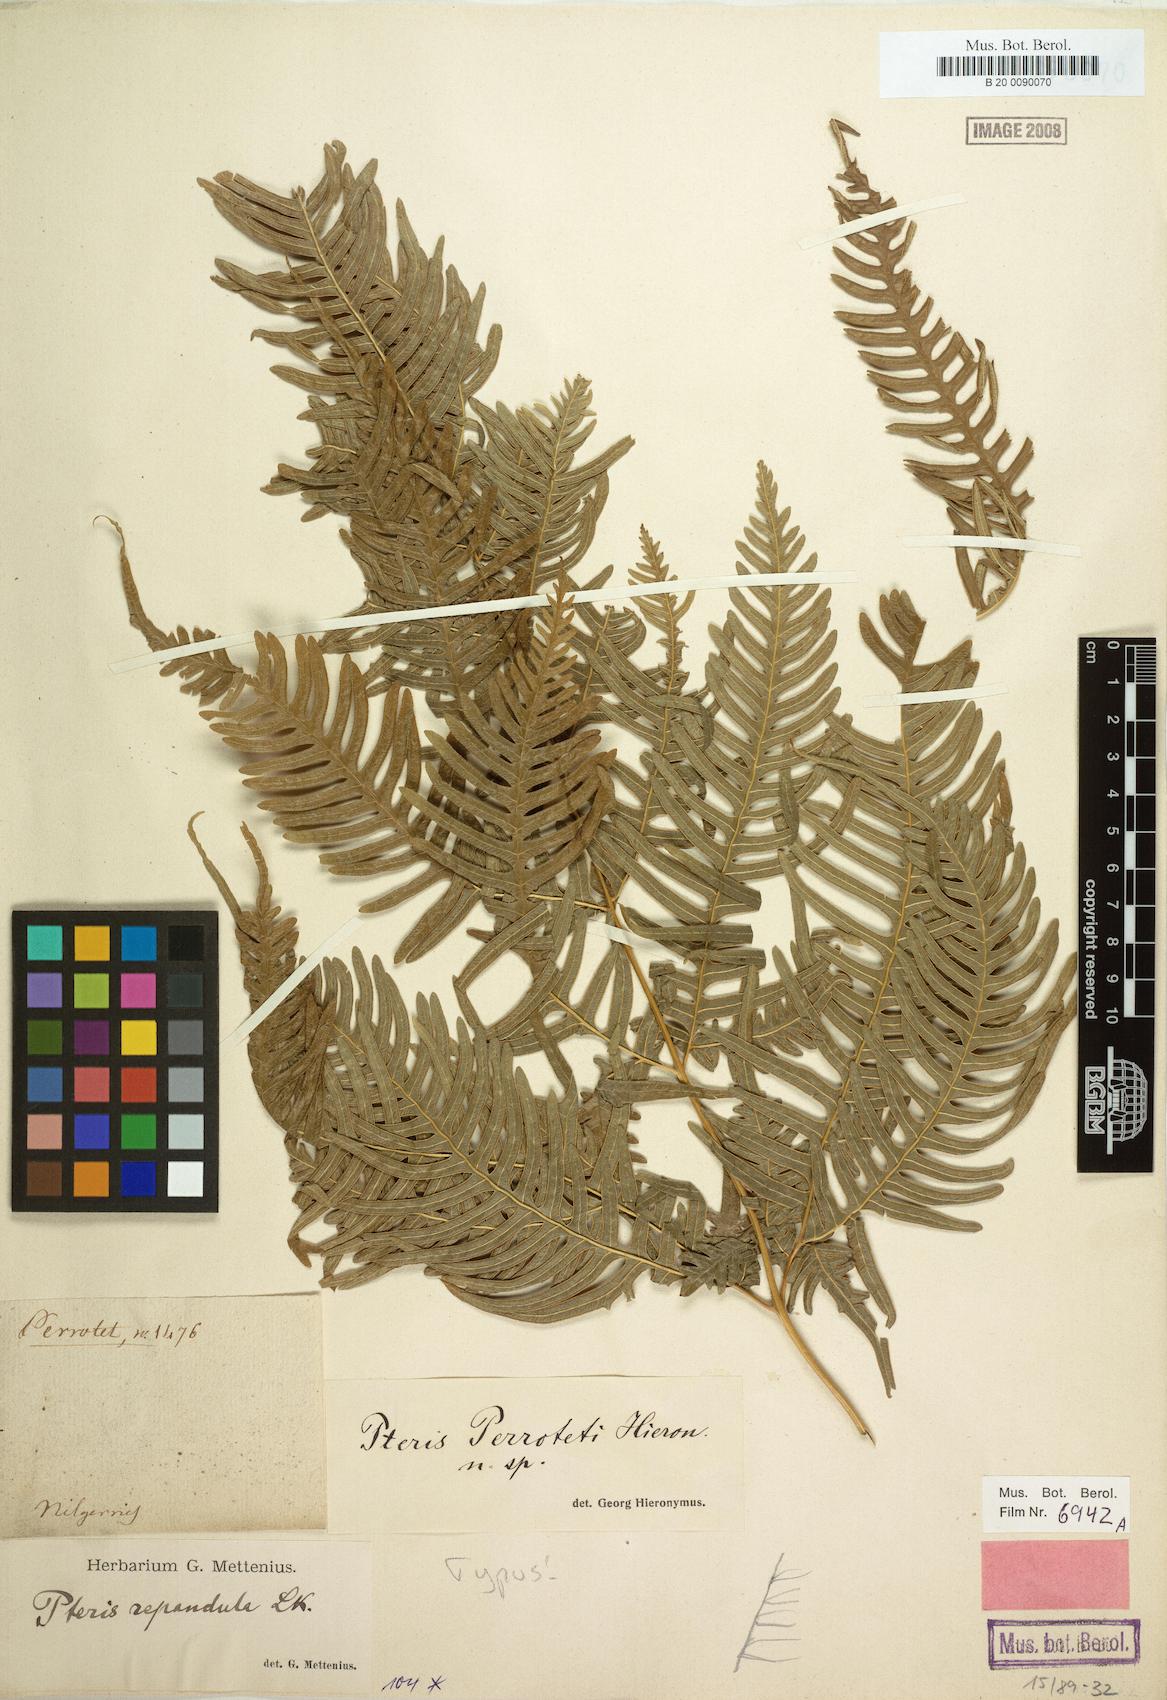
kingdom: Plantae
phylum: Tracheophyta
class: Polypodiopsida
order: Polypodiales
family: Pteridaceae
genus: Pteris
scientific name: Pteris perrottetii
